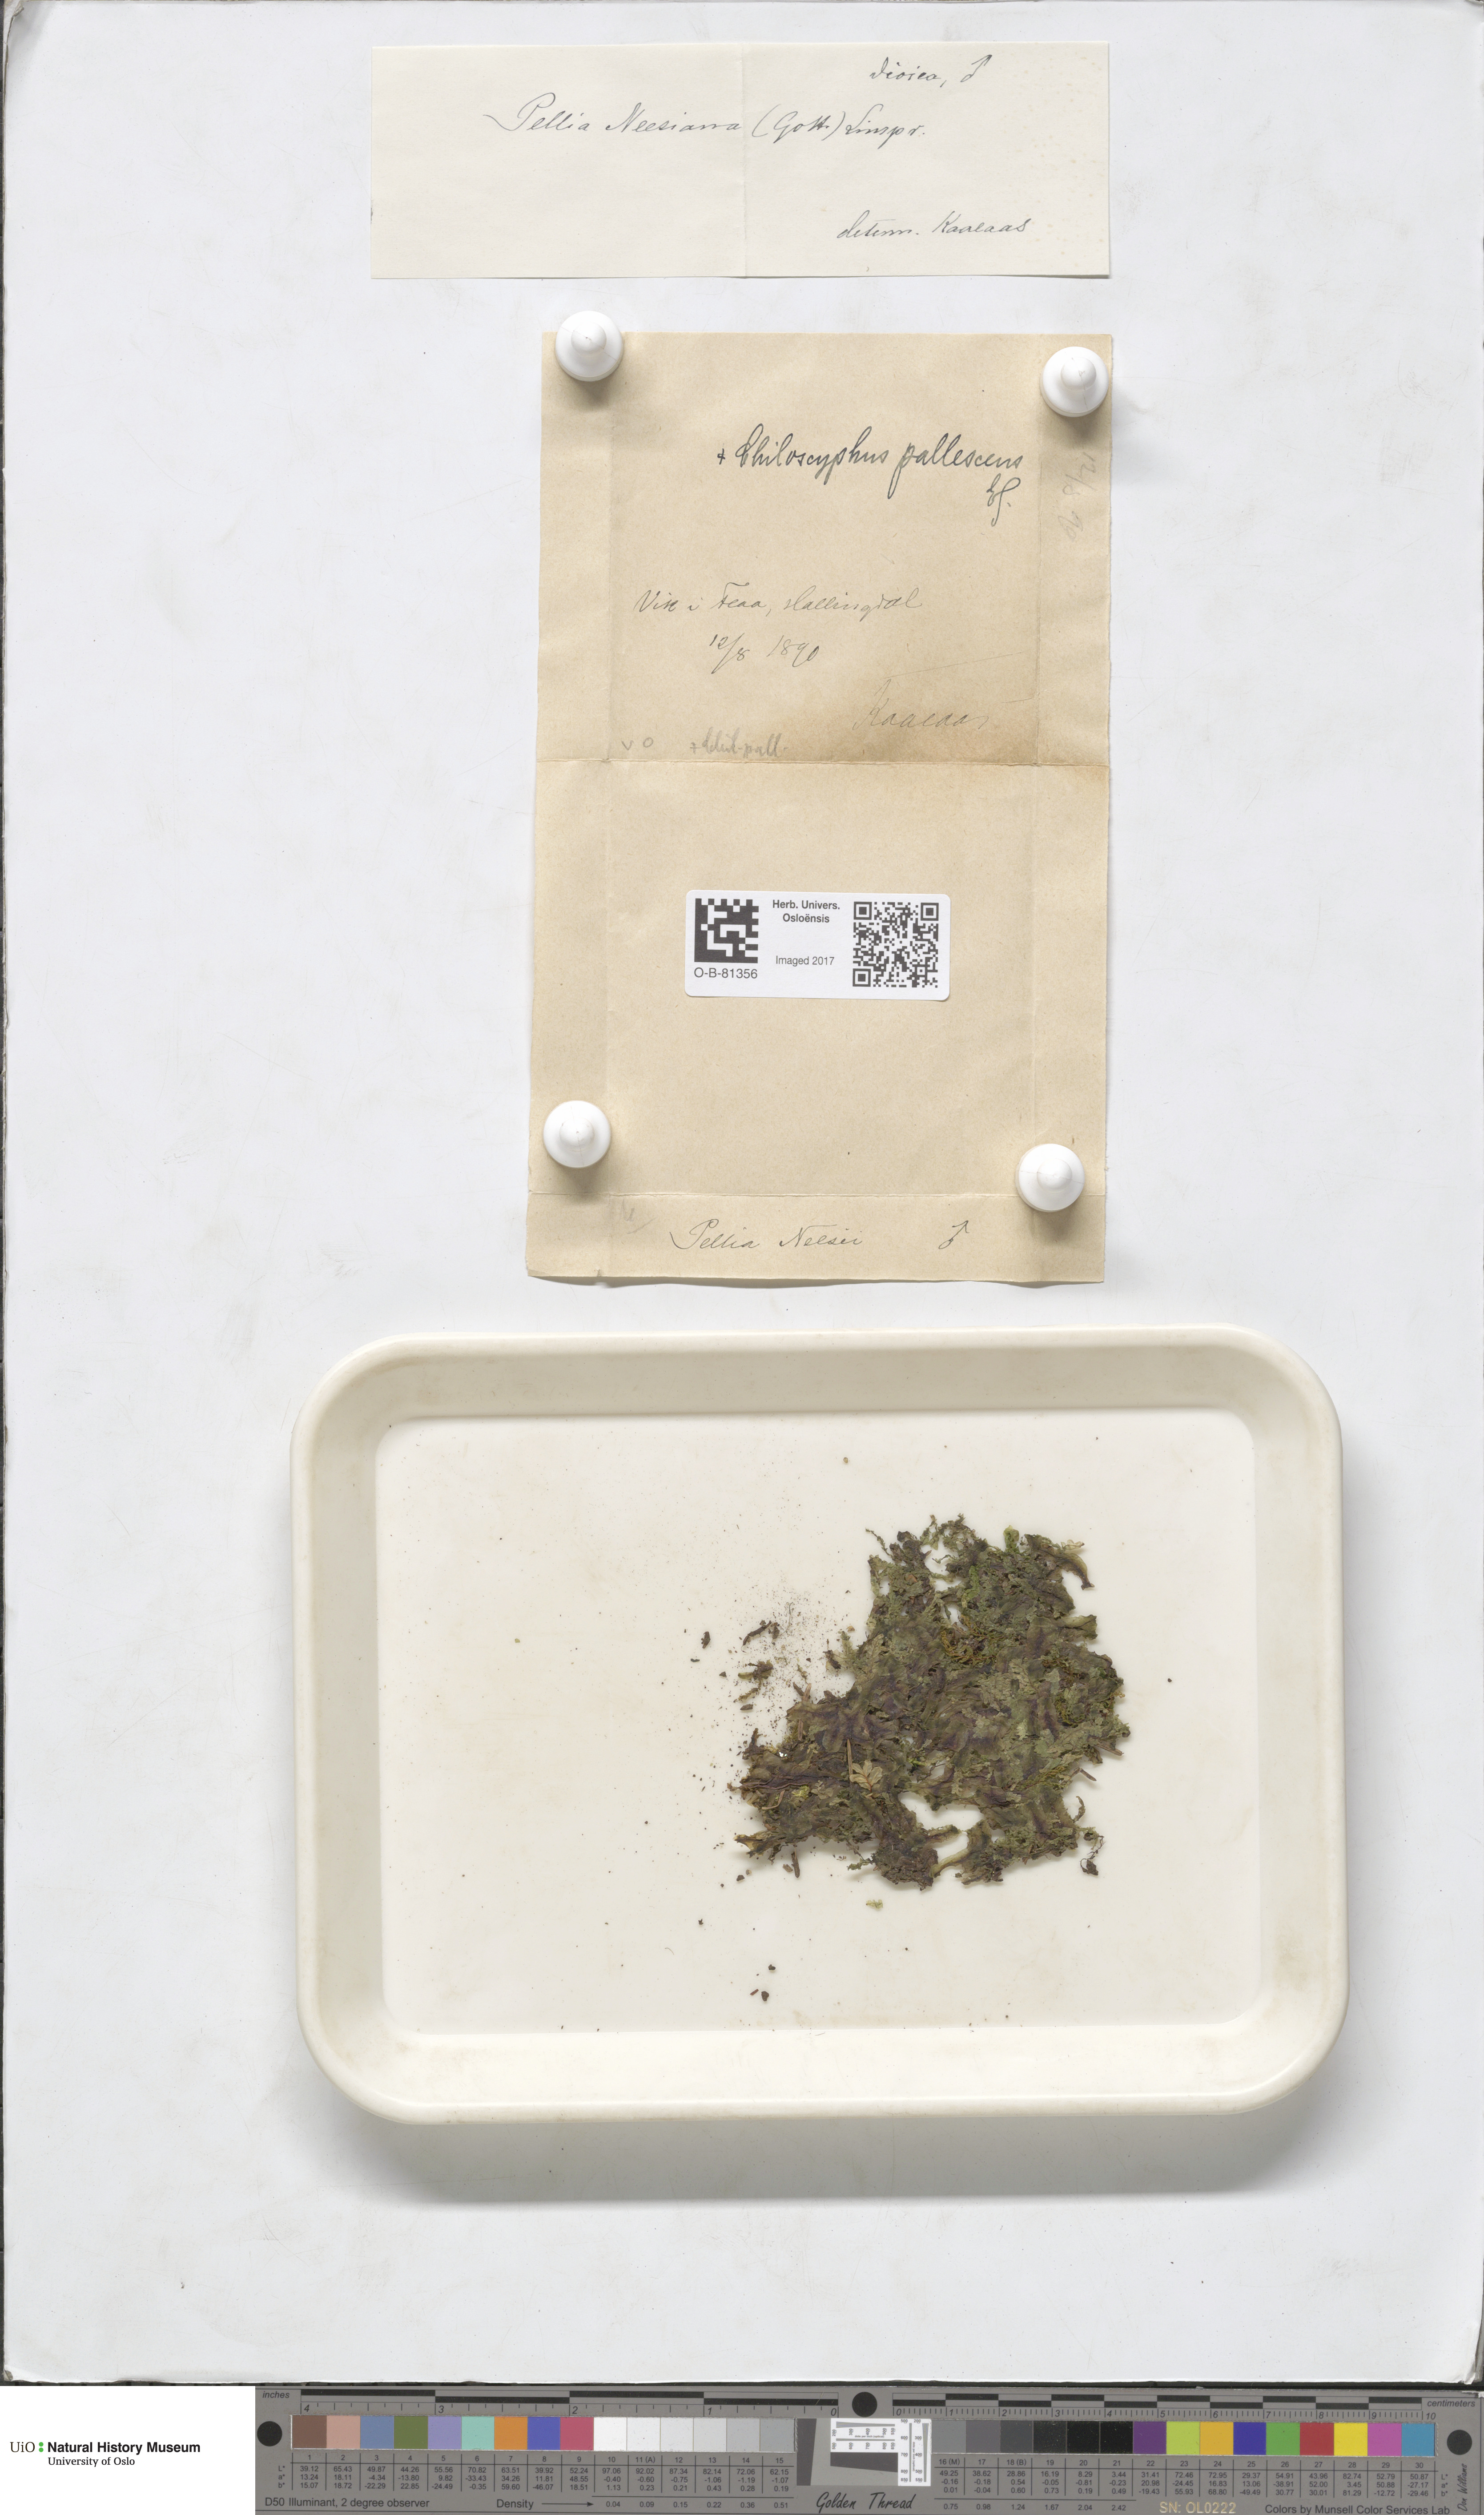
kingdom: Plantae
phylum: Marchantiophyta
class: Jungermanniopsida
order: Pelliales
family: Pelliaceae
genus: Pellia
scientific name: Pellia neesiana
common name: Nees  pellia
